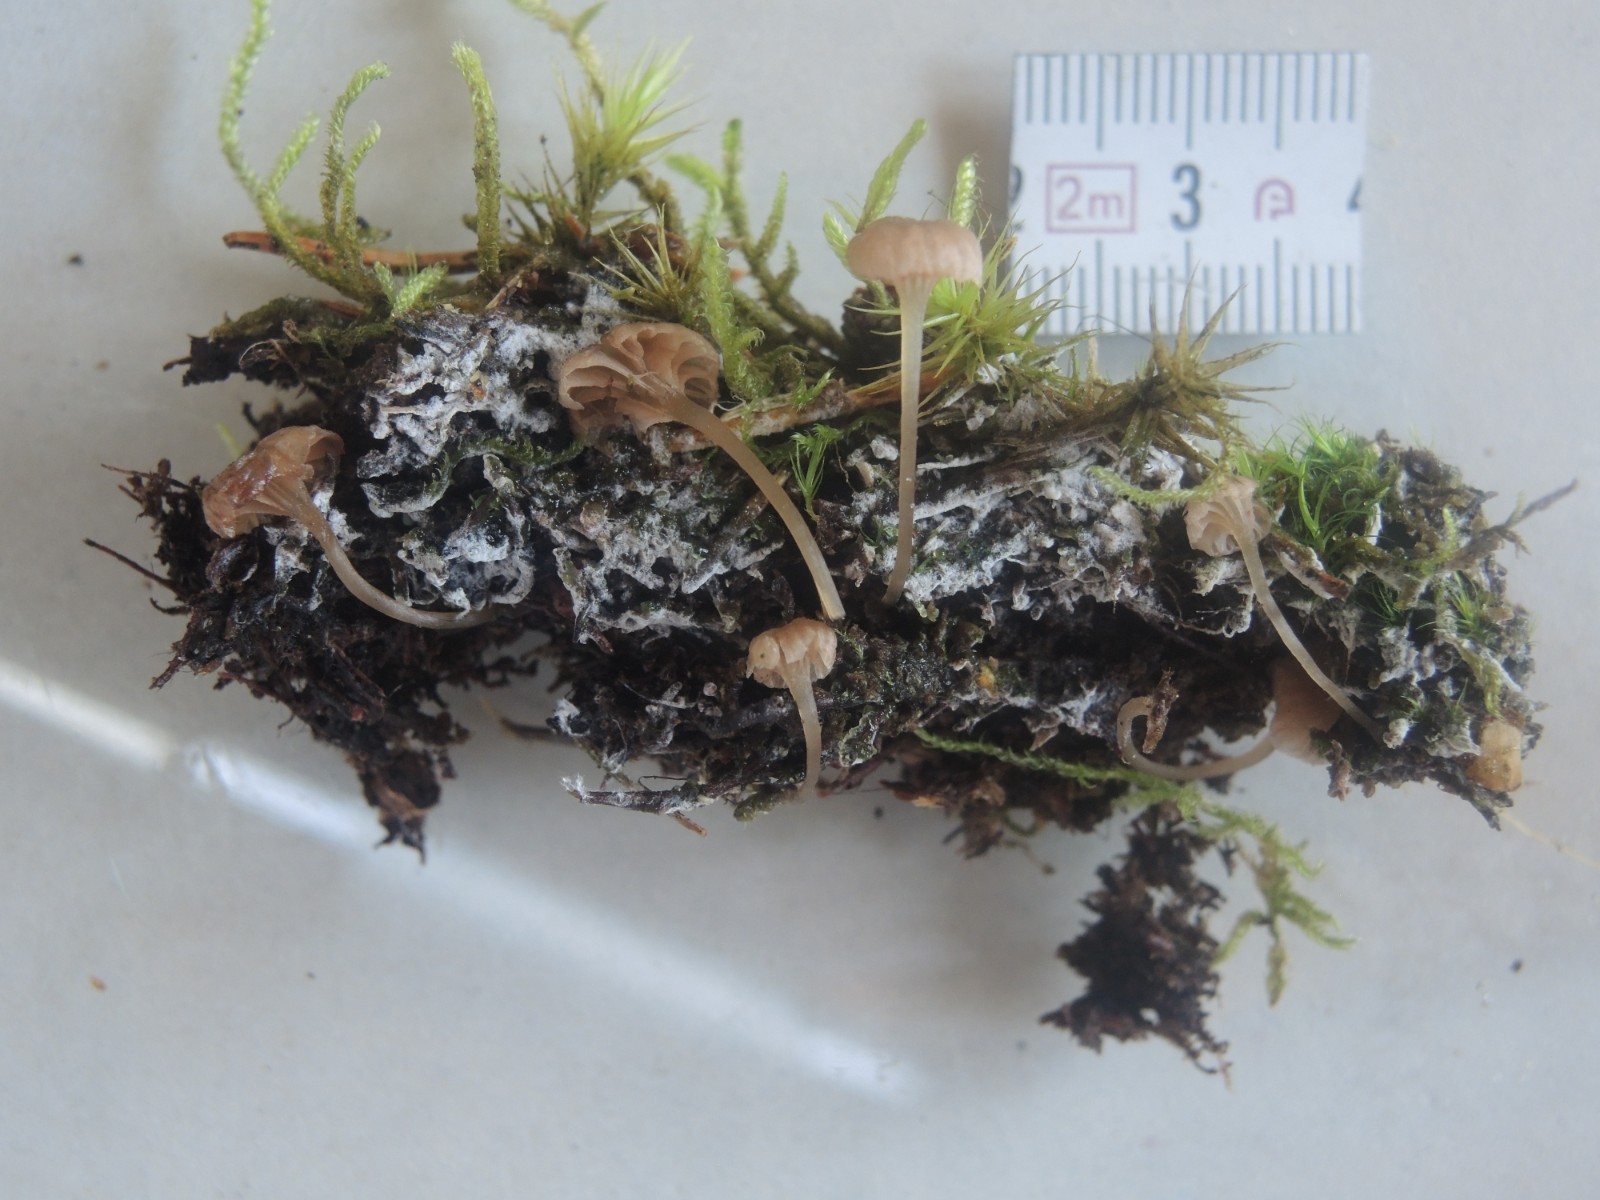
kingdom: Fungi
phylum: Basidiomycota
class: Agaricomycetes
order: Agaricales
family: Entolomataceae
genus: Entoloma
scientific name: Entoloma rhodocylix
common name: fjernbladet rødblad
